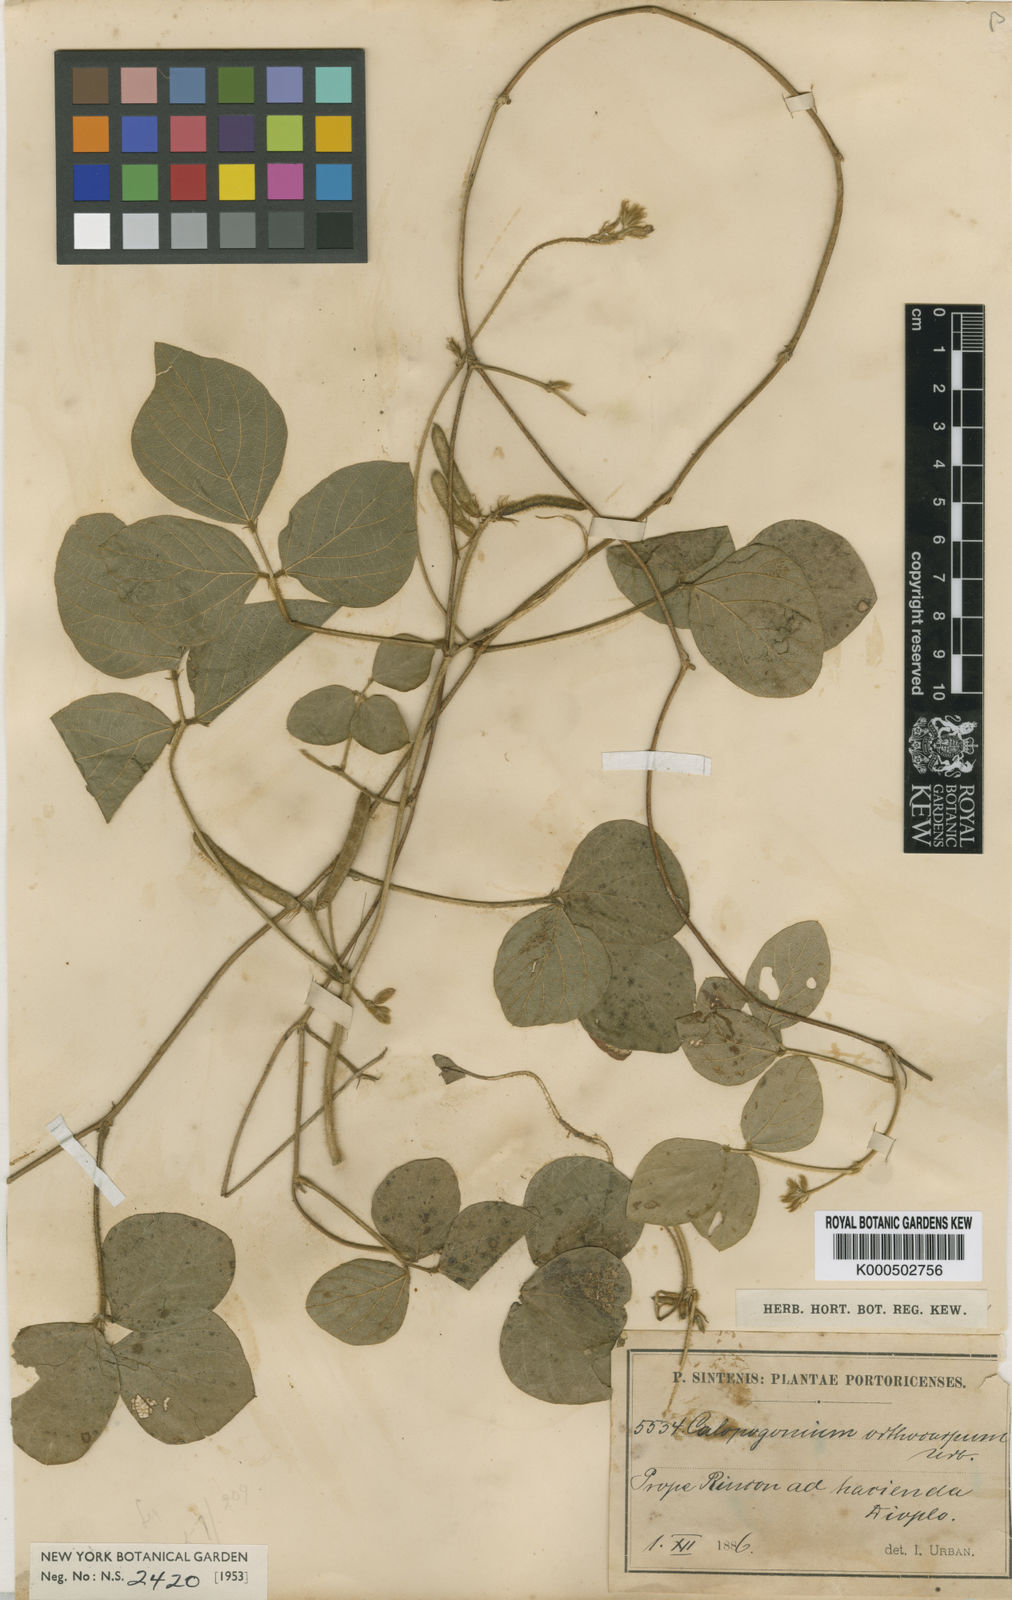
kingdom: Plantae
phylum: Tracheophyta
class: Magnoliopsida
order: Fabales
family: Fabaceae
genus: Calopogonium
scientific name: Calopogonium mucunoides
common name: Calopo
